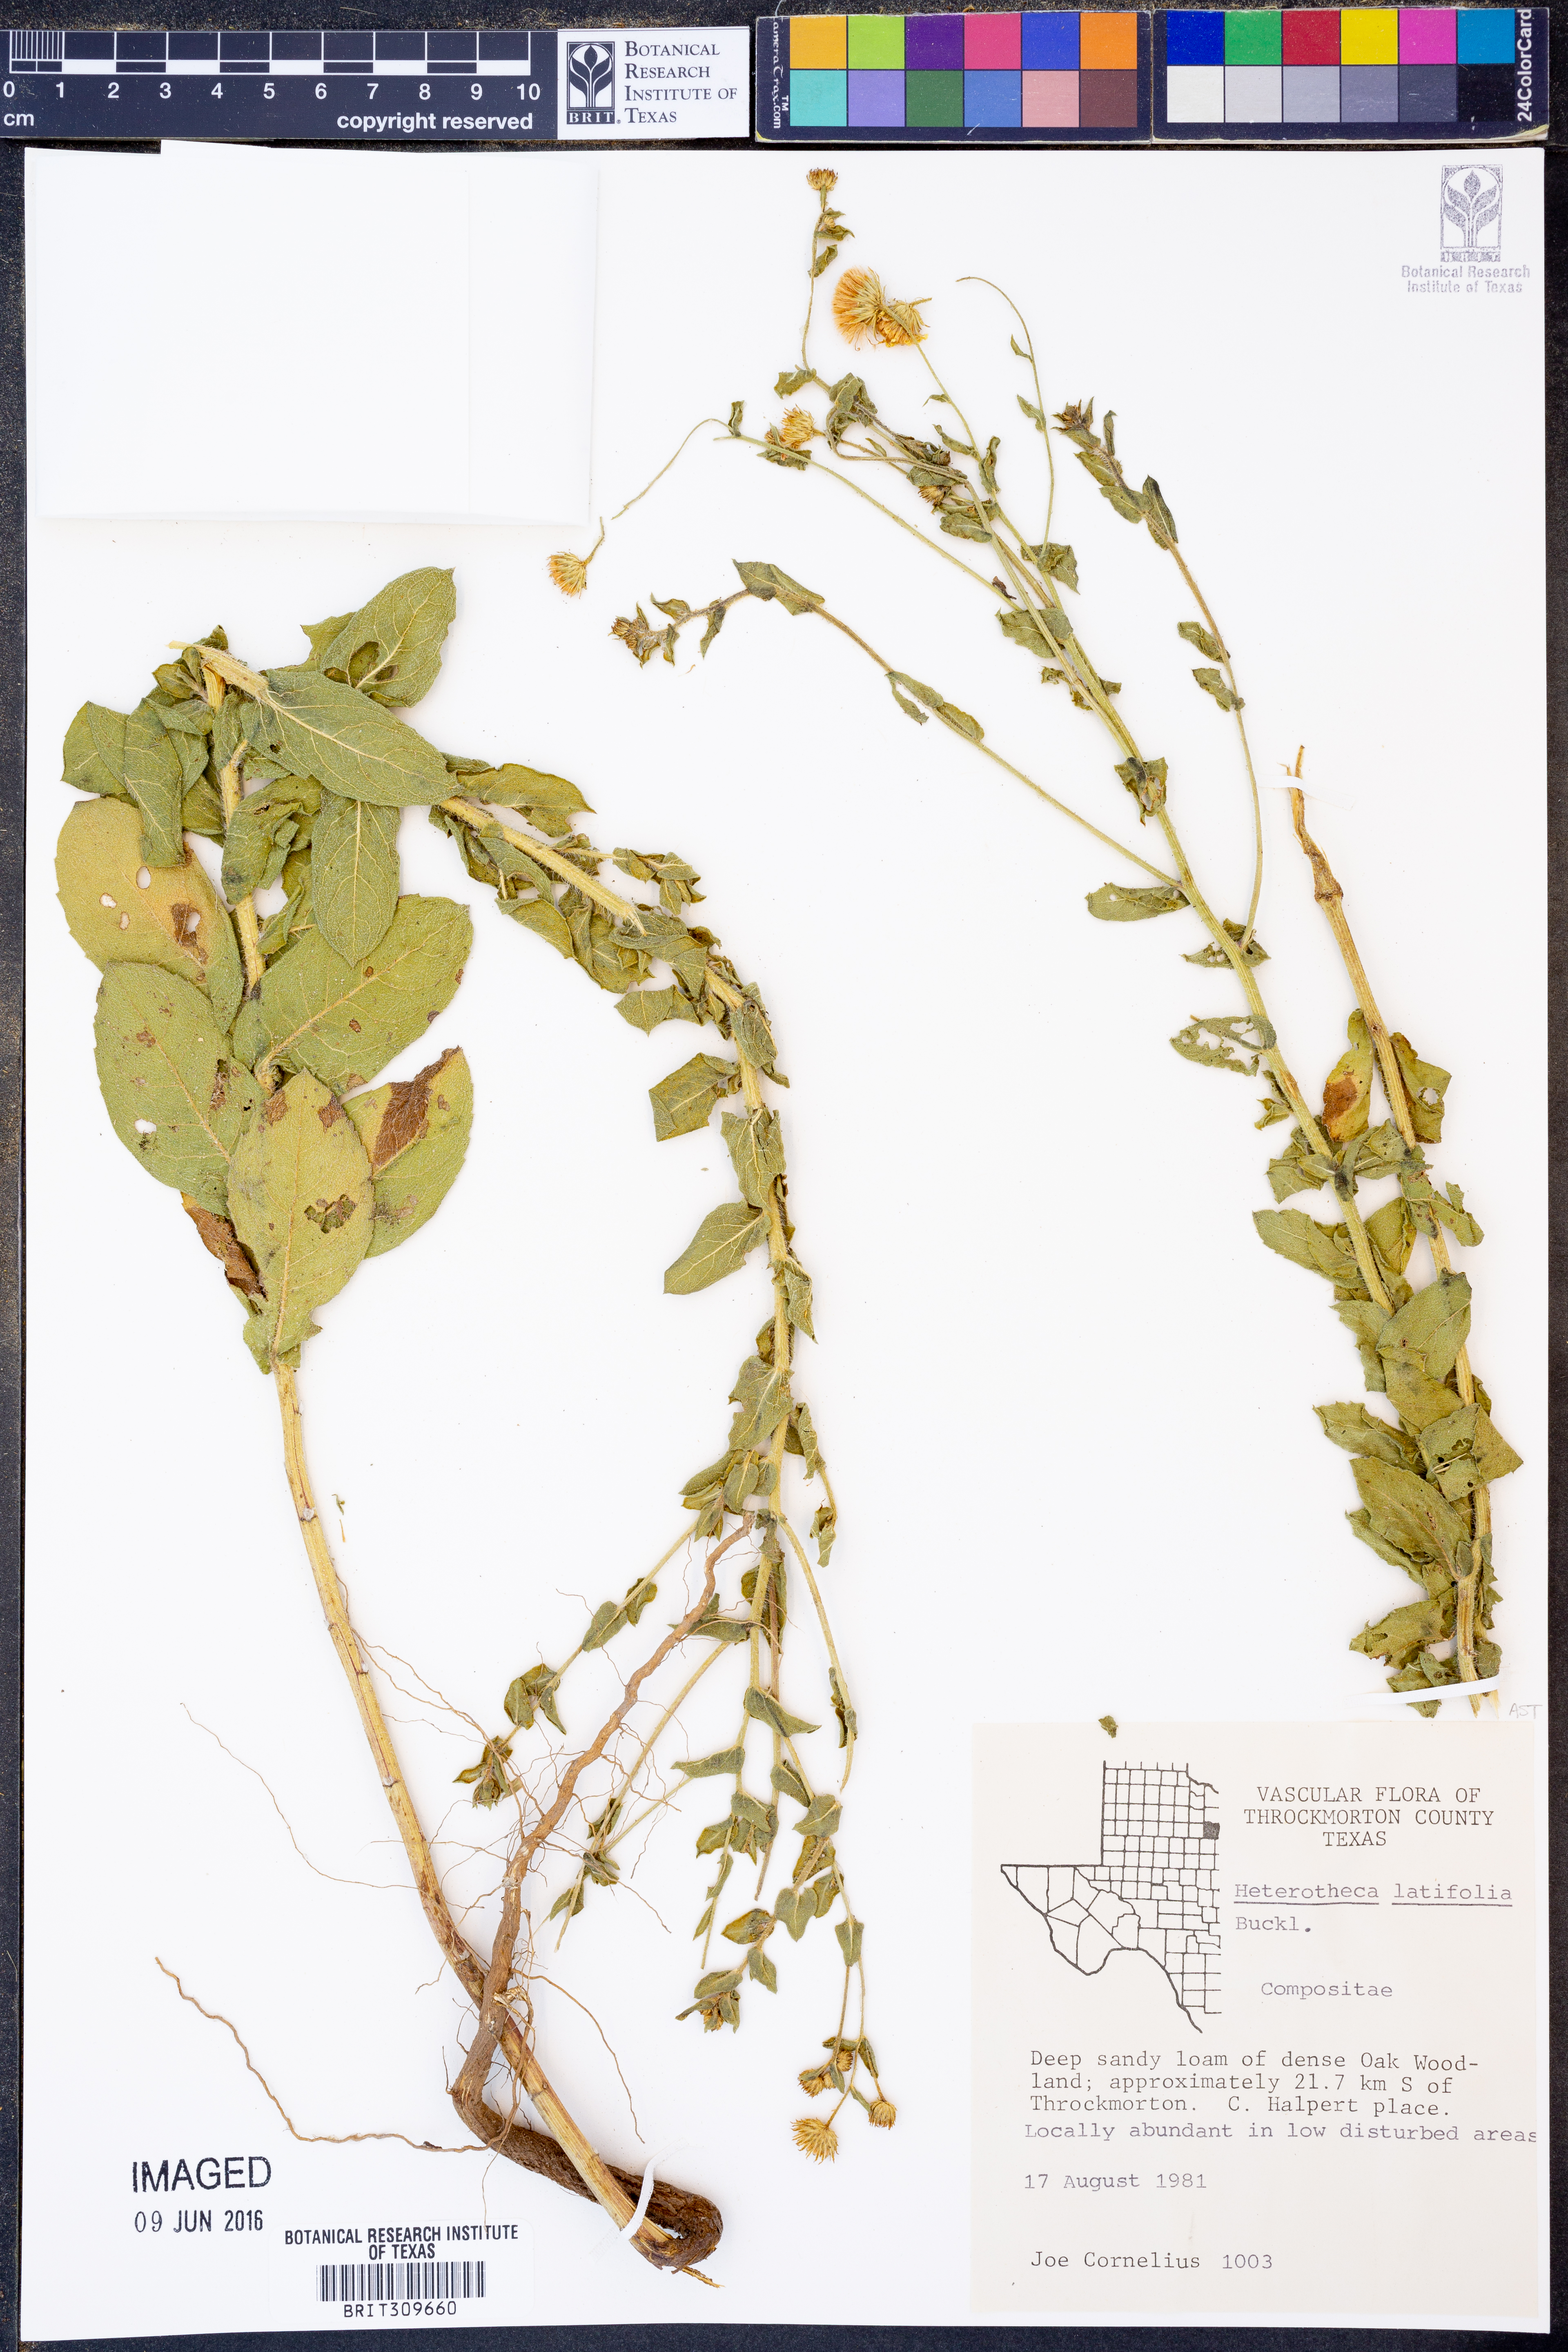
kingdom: Plantae
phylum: Tracheophyta
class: Magnoliopsida
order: Asterales
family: Asteraceae
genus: Heterotheca
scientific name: Heterotheca subaxillaris
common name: Camphorweed
